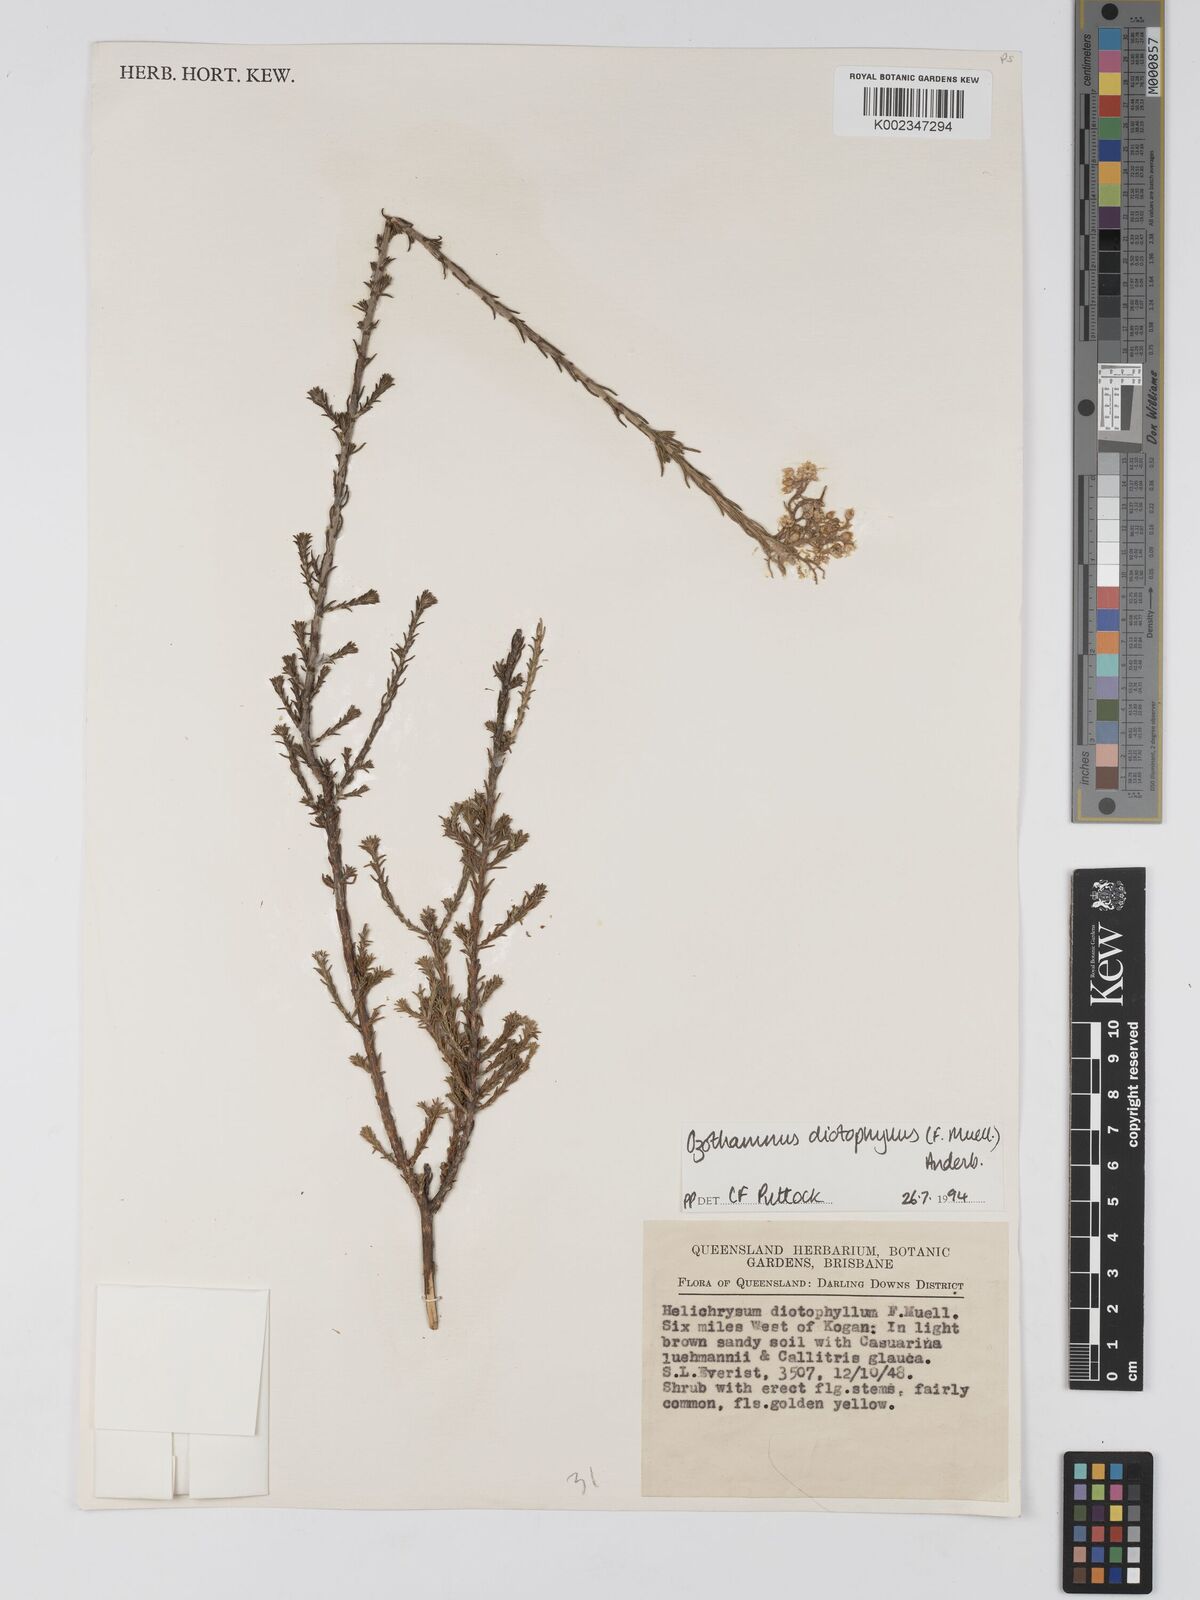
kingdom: Plantae
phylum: Tracheophyta
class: Magnoliopsida
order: Asterales
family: Asteraceae
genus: Ozothamnus
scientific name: Ozothamnus diotophyllus
